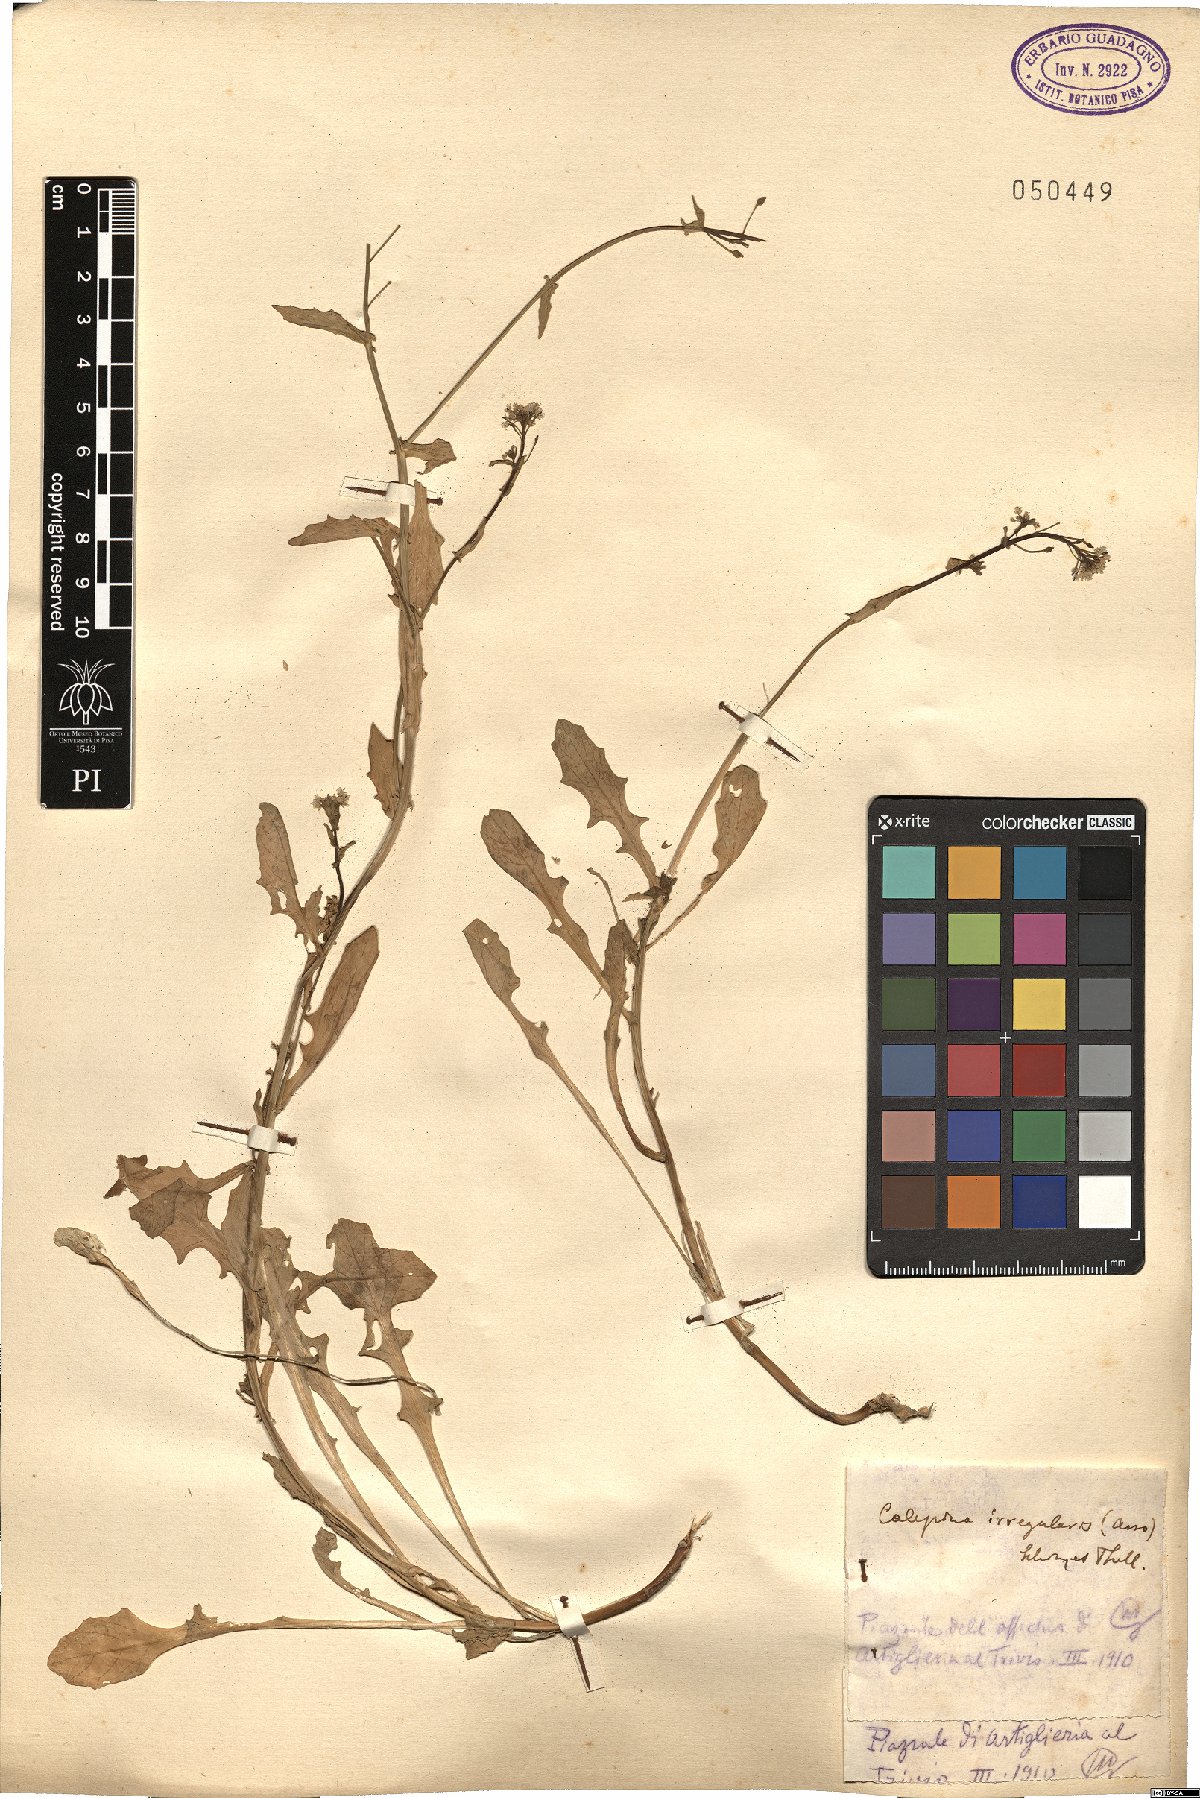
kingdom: Plantae
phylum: Tracheophyta
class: Magnoliopsida
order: Brassicales
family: Brassicaceae
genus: Calepina
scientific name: Calepina irregularis
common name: White ballmustard
